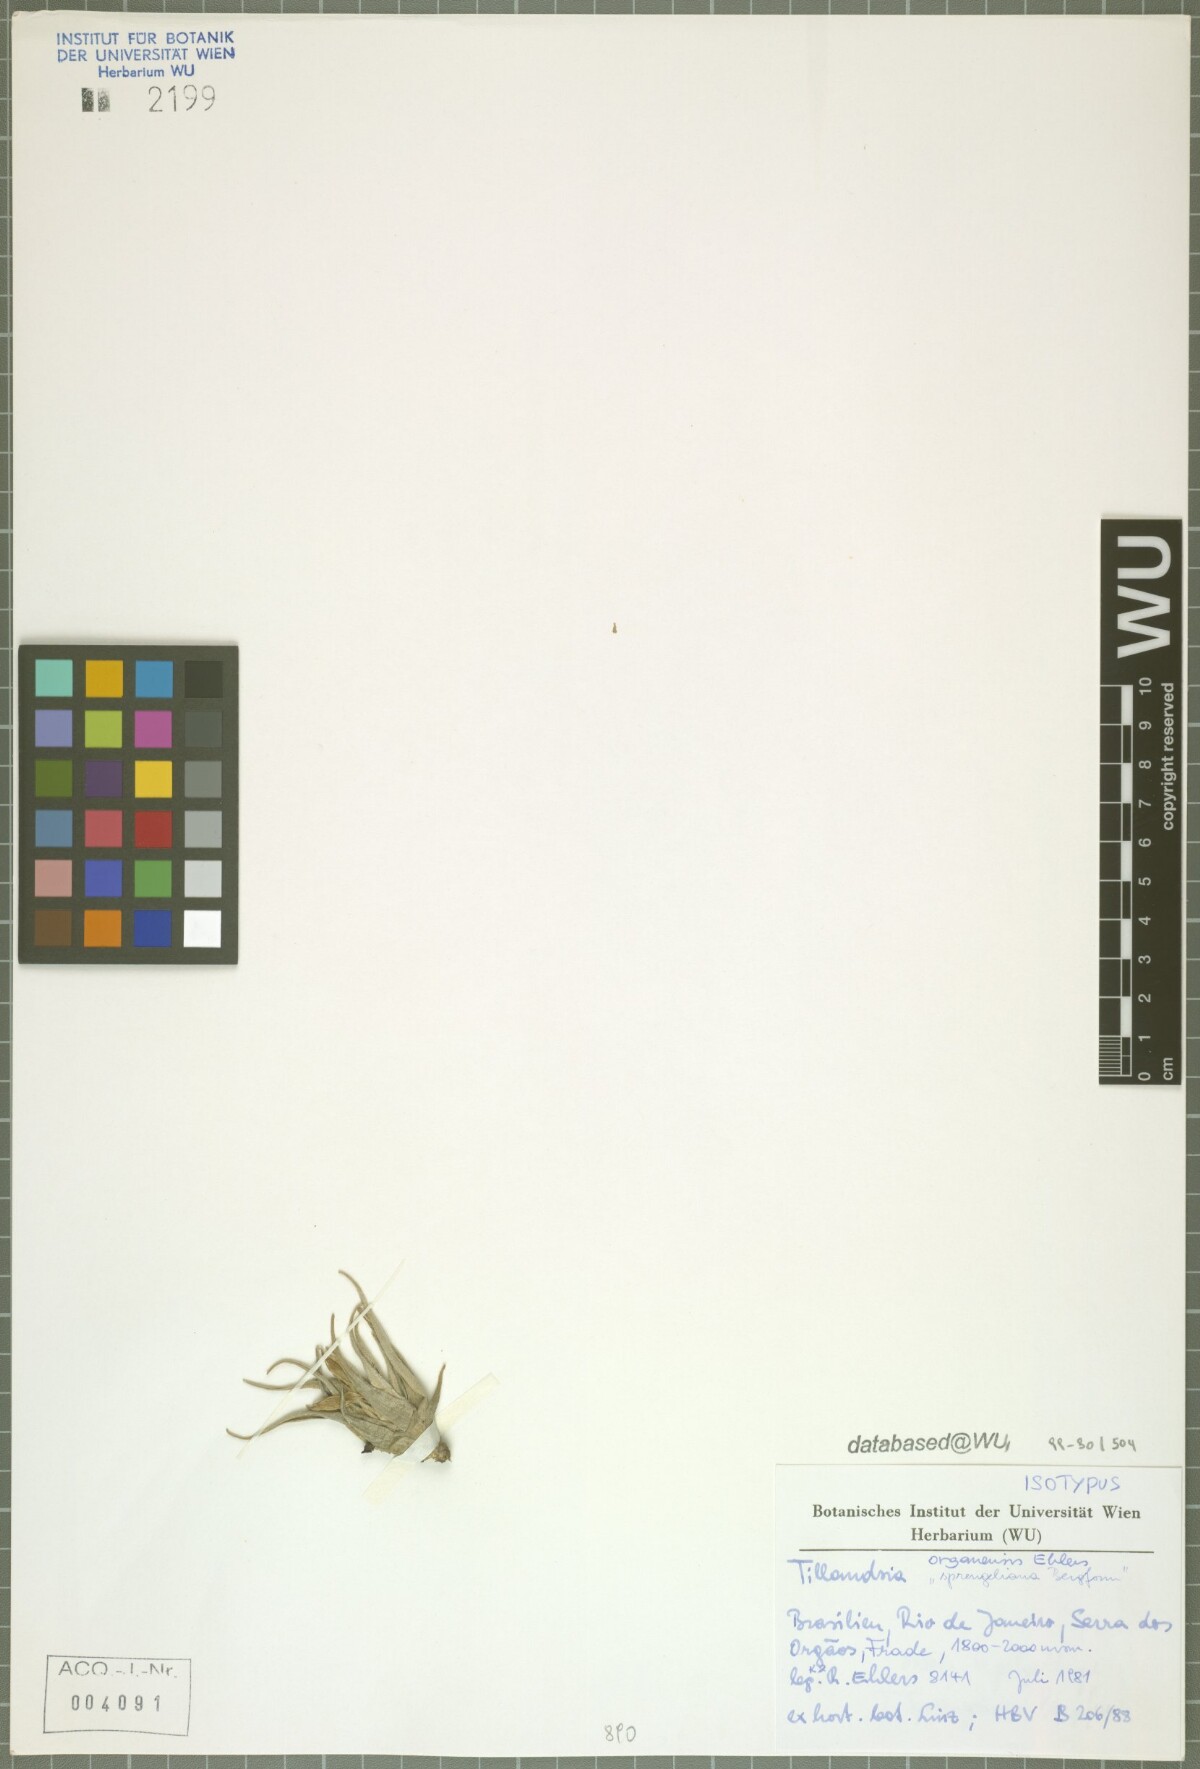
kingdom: Plantae
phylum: Tracheophyta
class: Liliopsida
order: Poales
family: Bromeliaceae
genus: Tillandsia
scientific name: Tillandsia organensis
